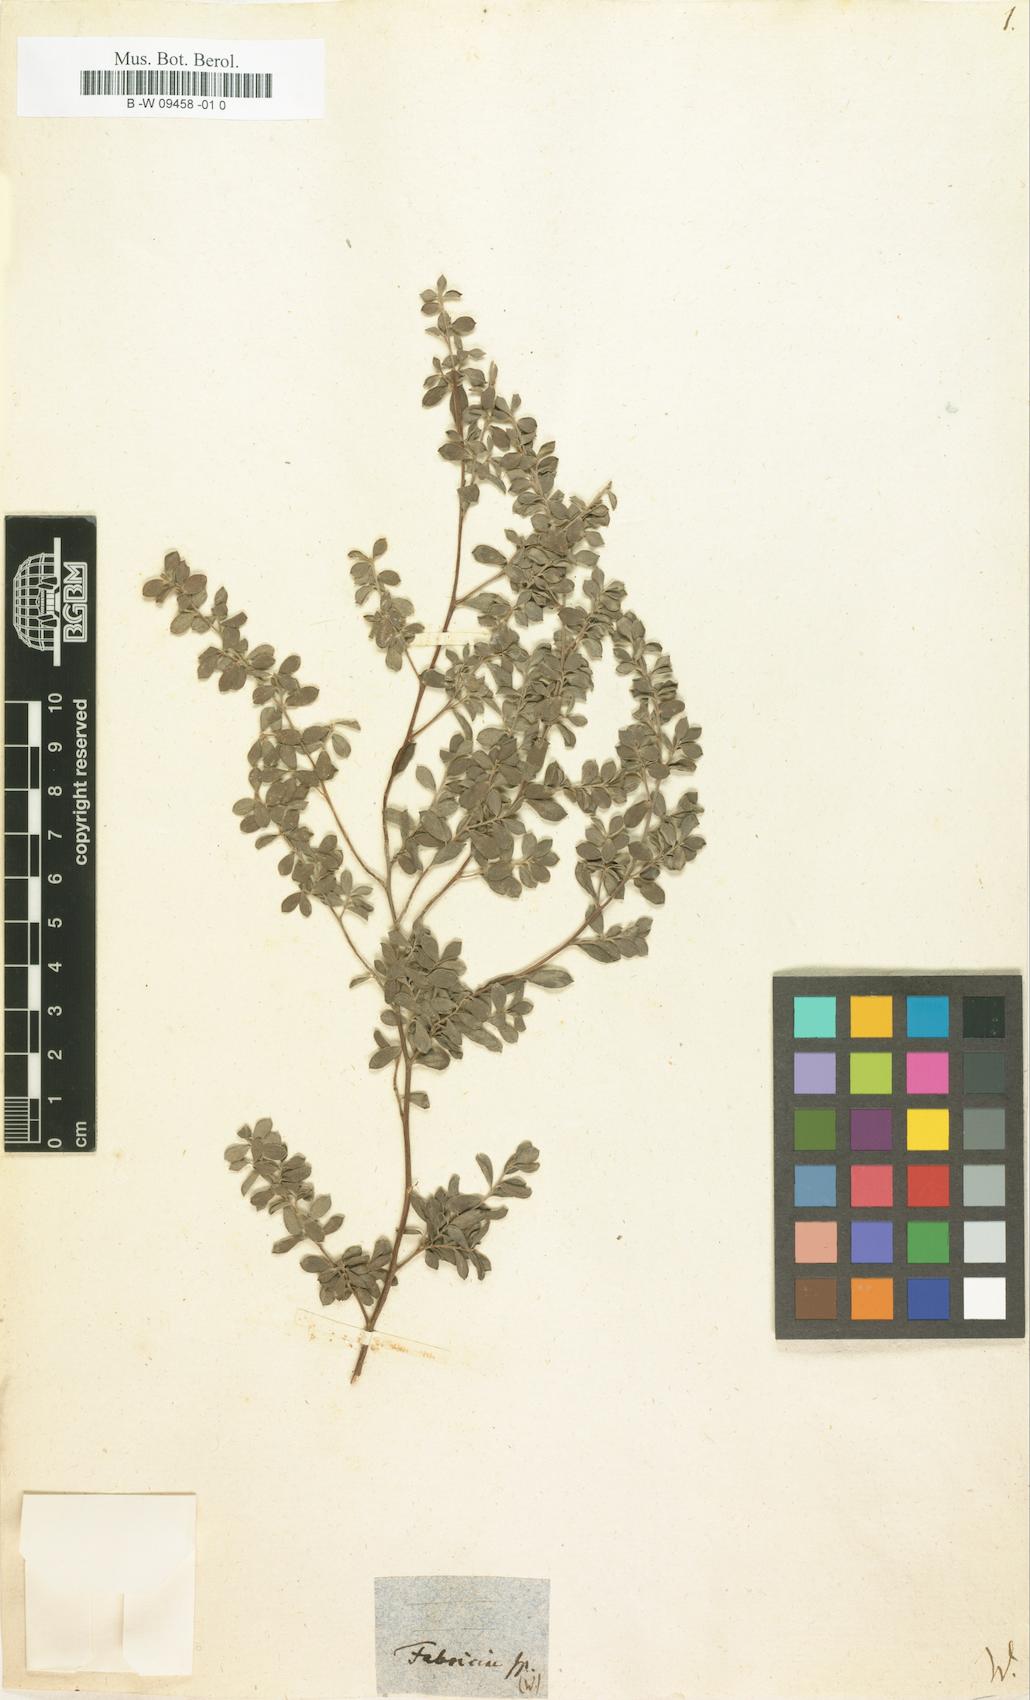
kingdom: Plantae
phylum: Tracheophyta
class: Magnoliopsida
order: Myrtales
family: Myrtaceae
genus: Leptospermum
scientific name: Leptospermum lanigerum
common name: Woolly tea-tree
